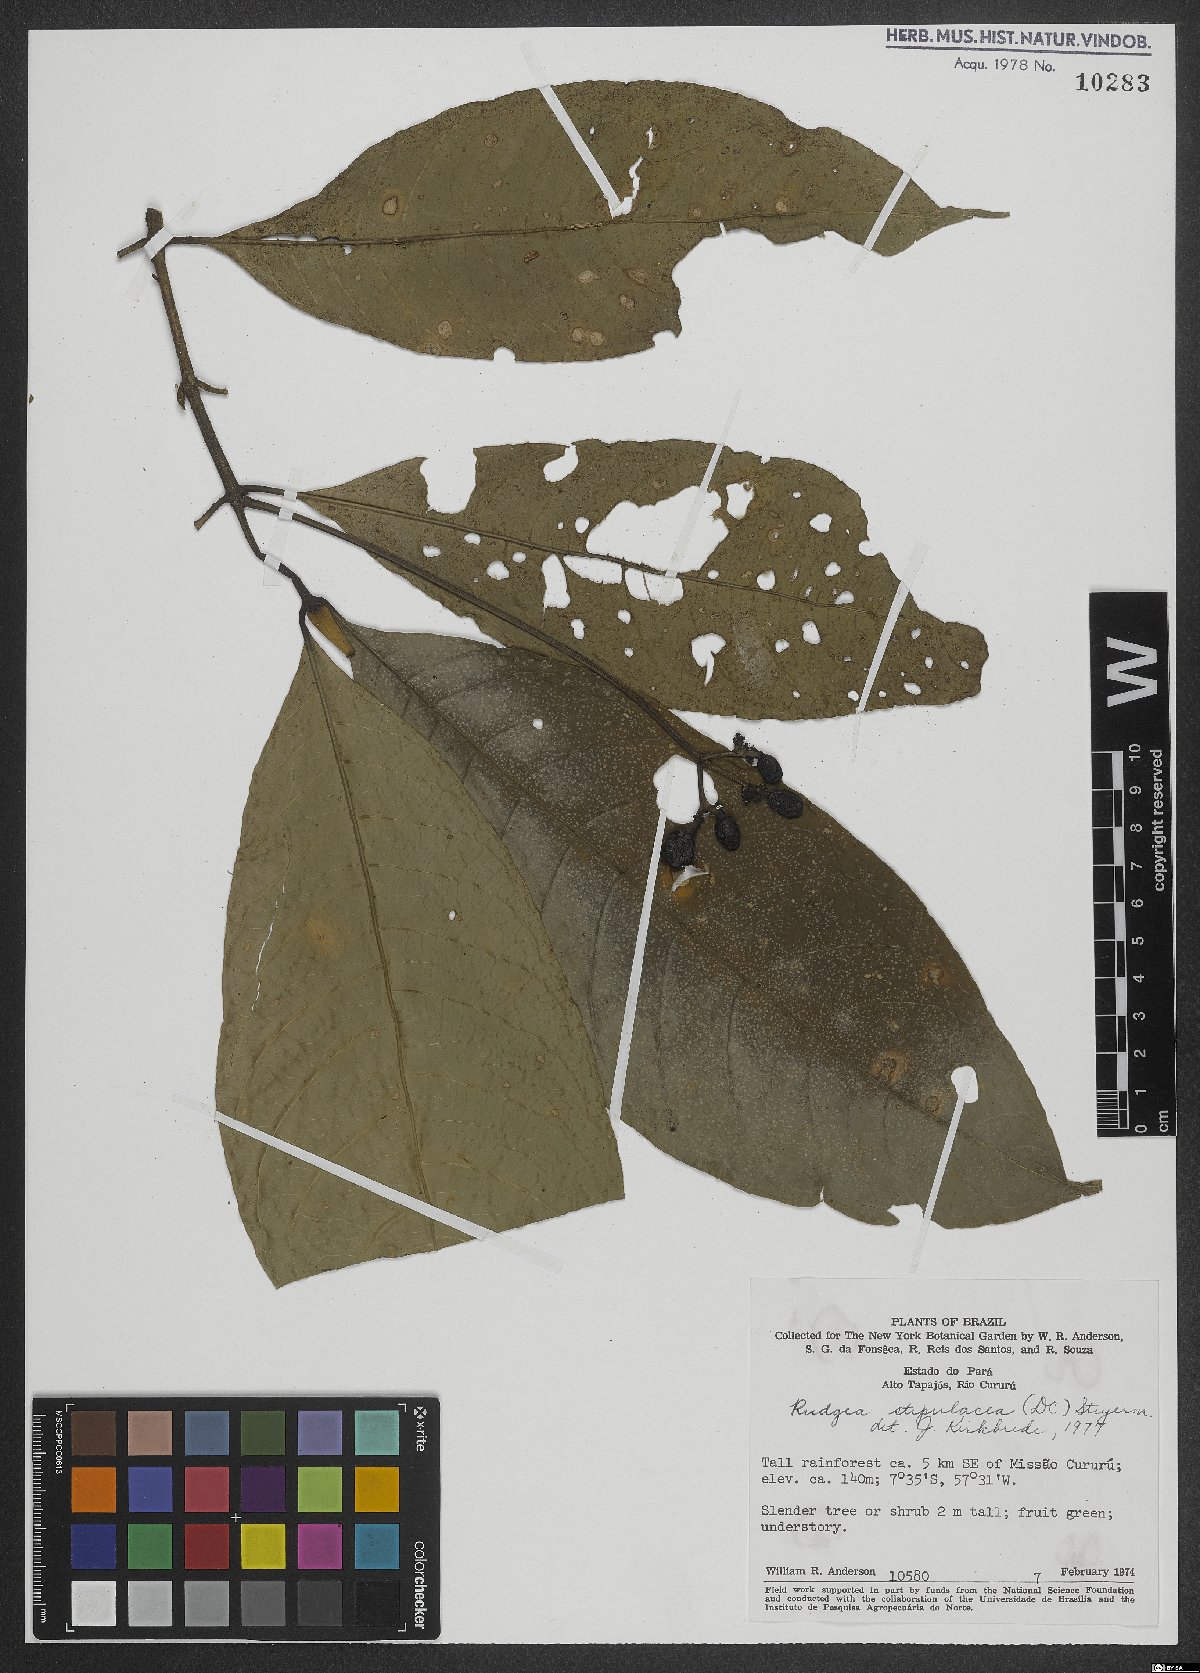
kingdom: Plantae
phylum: Tracheophyta
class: Magnoliopsida
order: Gentianales
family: Rubiaceae
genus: Rudgea
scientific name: Rudgea stipulacea
